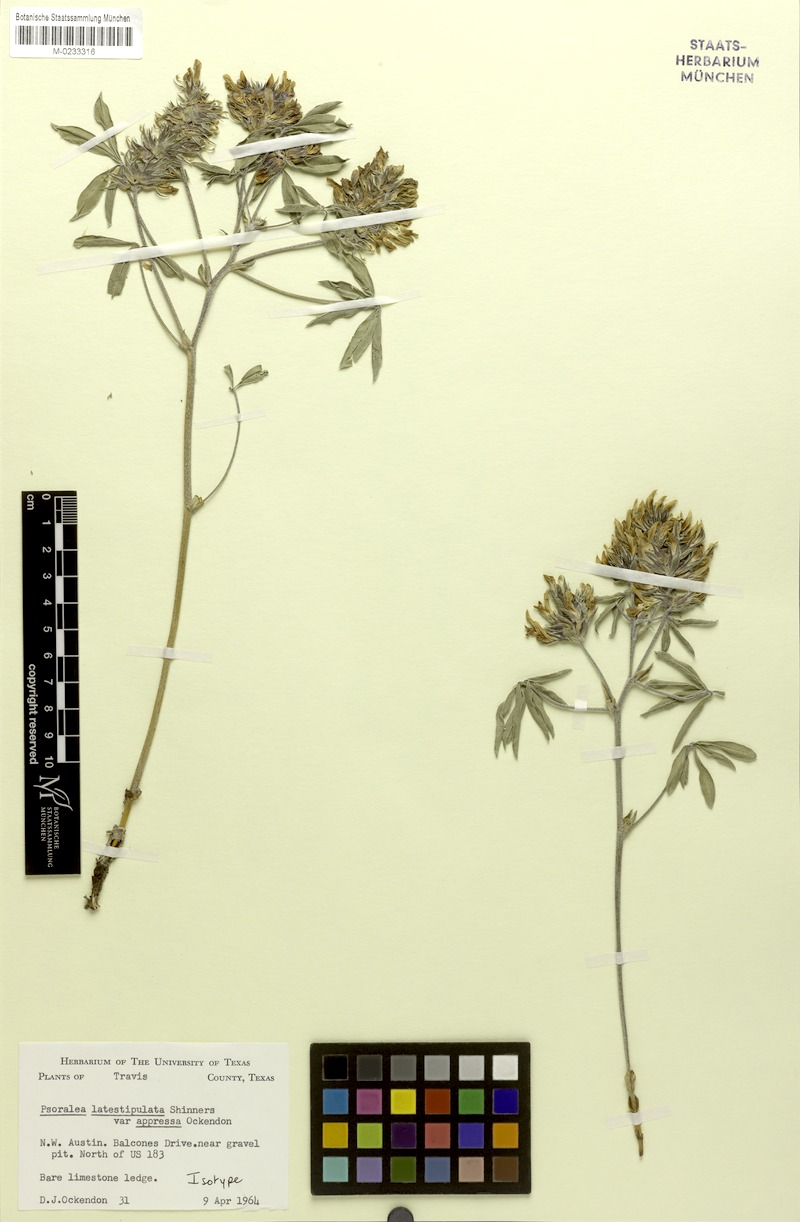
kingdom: Plantae
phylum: Tracheophyta
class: Magnoliopsida
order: Fabales
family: Fabaceae
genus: Pediomelum
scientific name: Pediomelum latestipulatum
